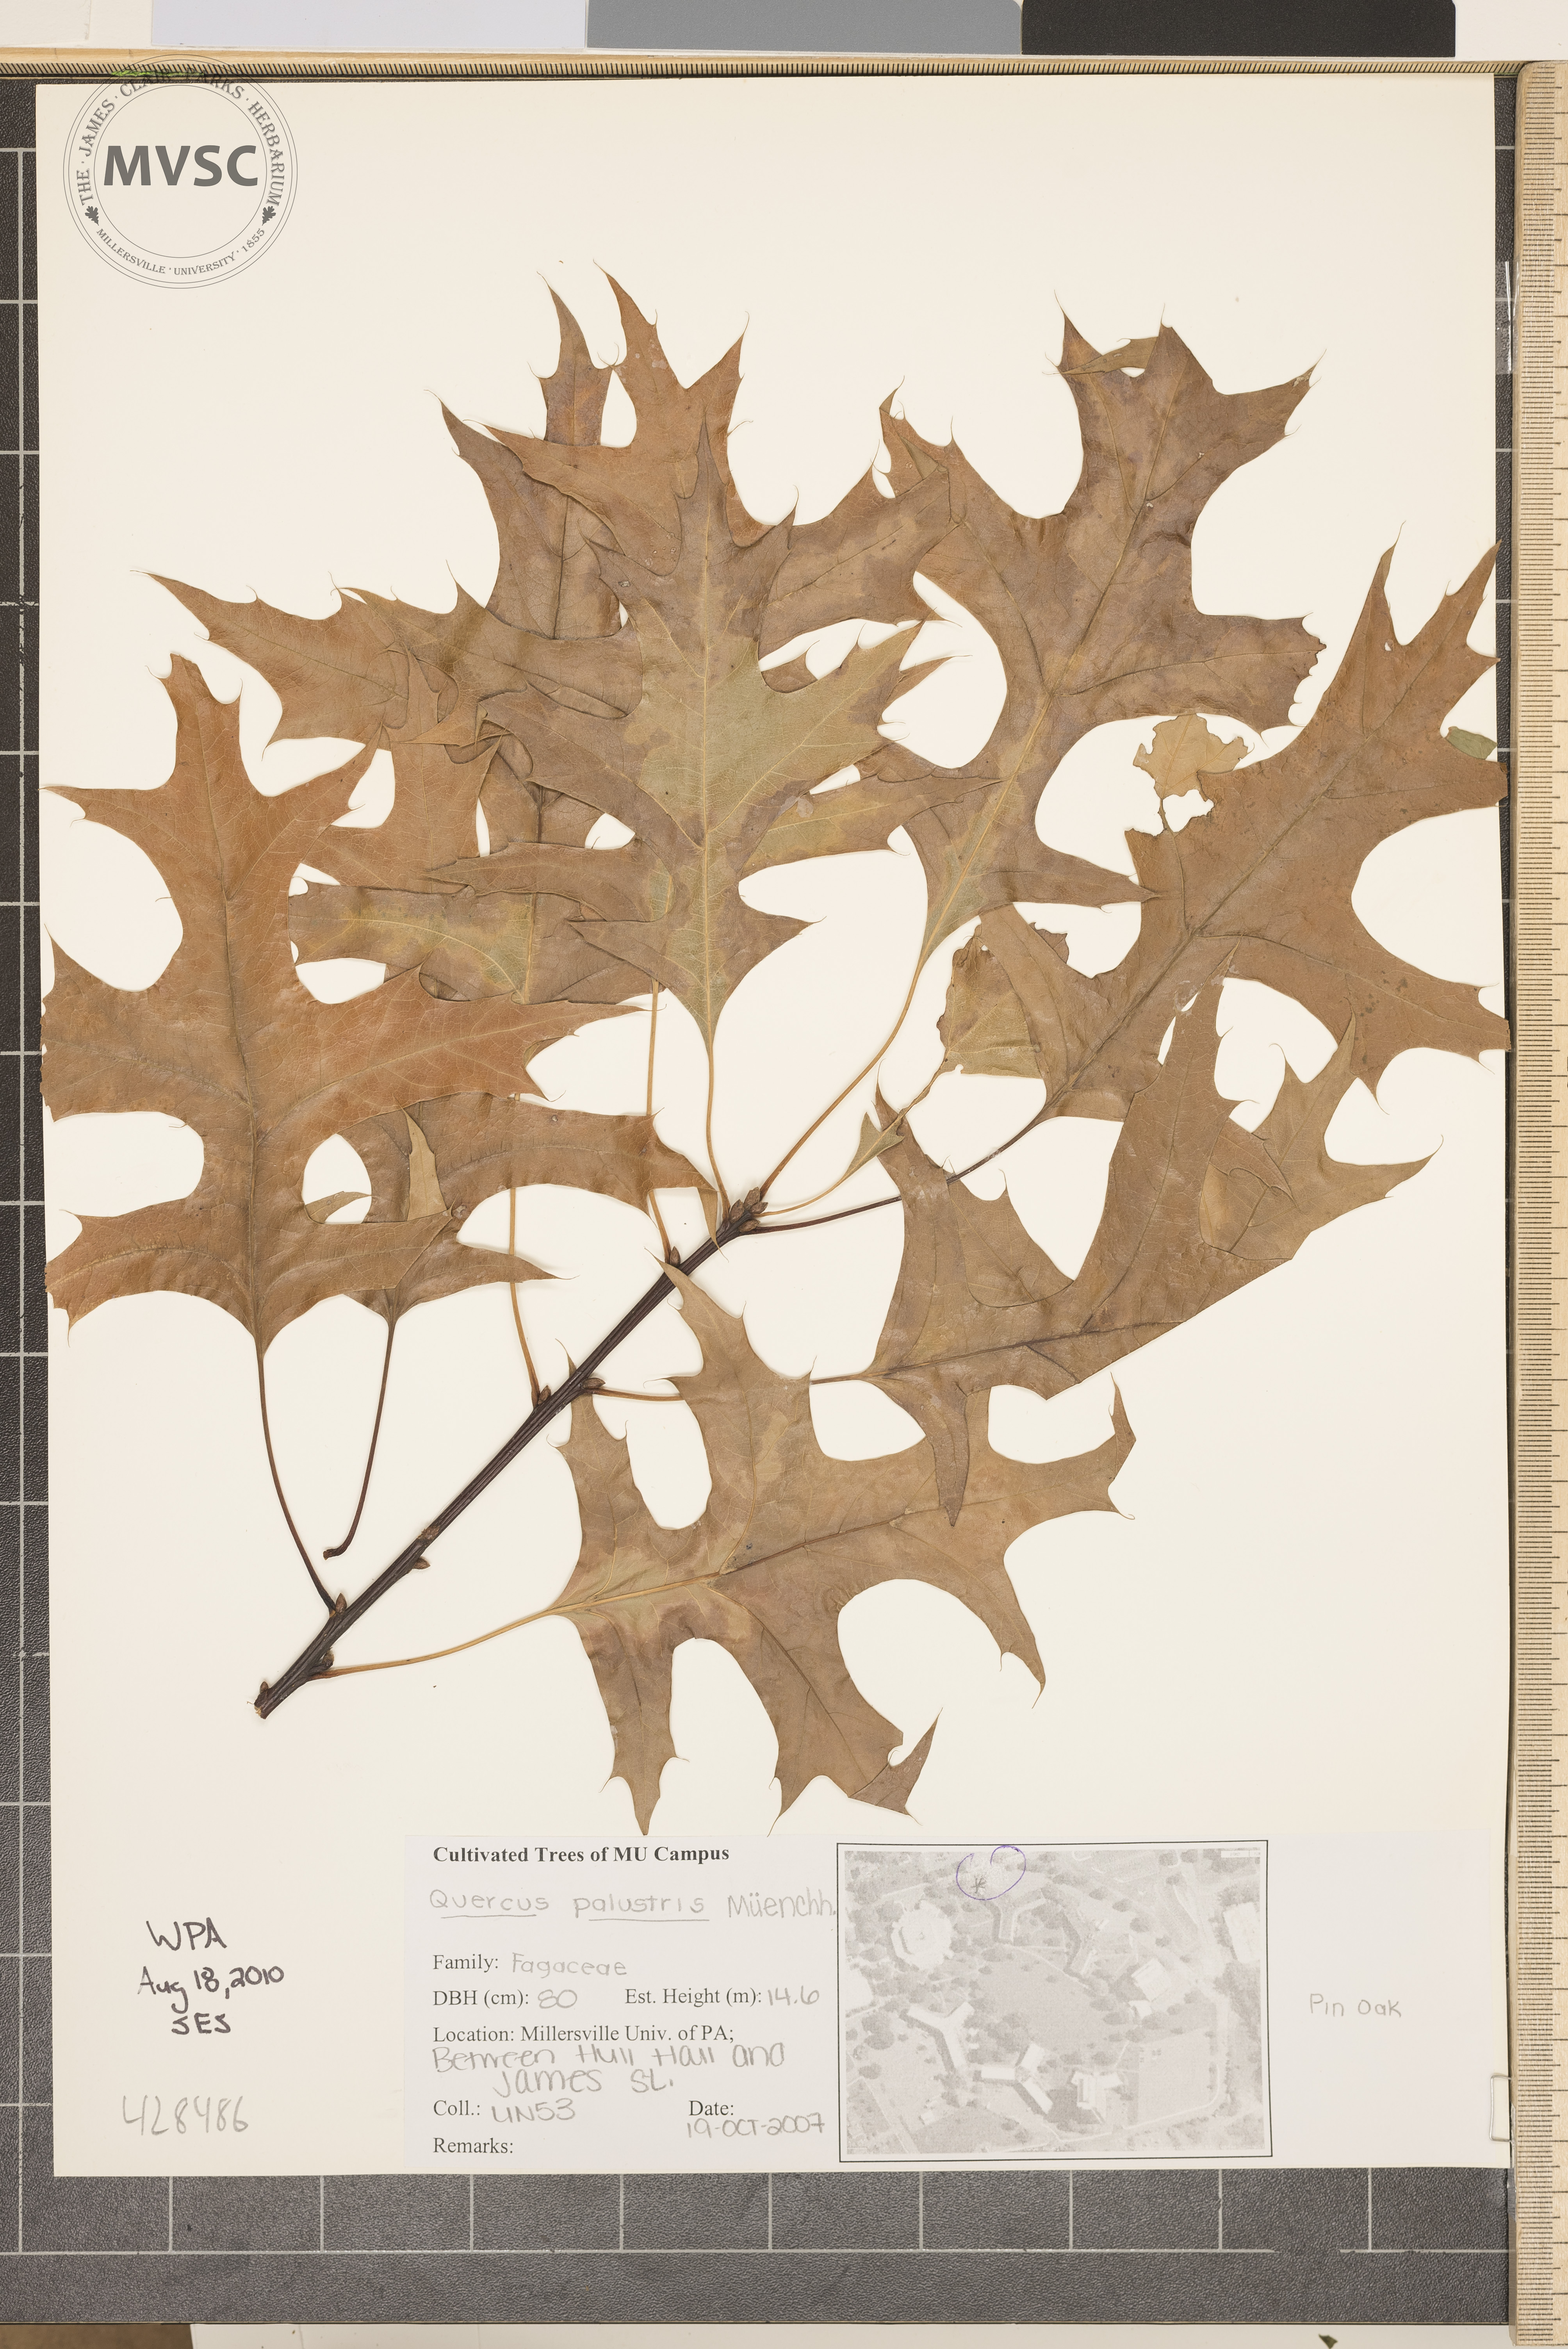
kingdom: Plantae
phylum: Tracheophyta
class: Magnoliopsida
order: Fagales
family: Fagaceae
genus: Quercus
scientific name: Quercus palustris
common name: Pin Oak
